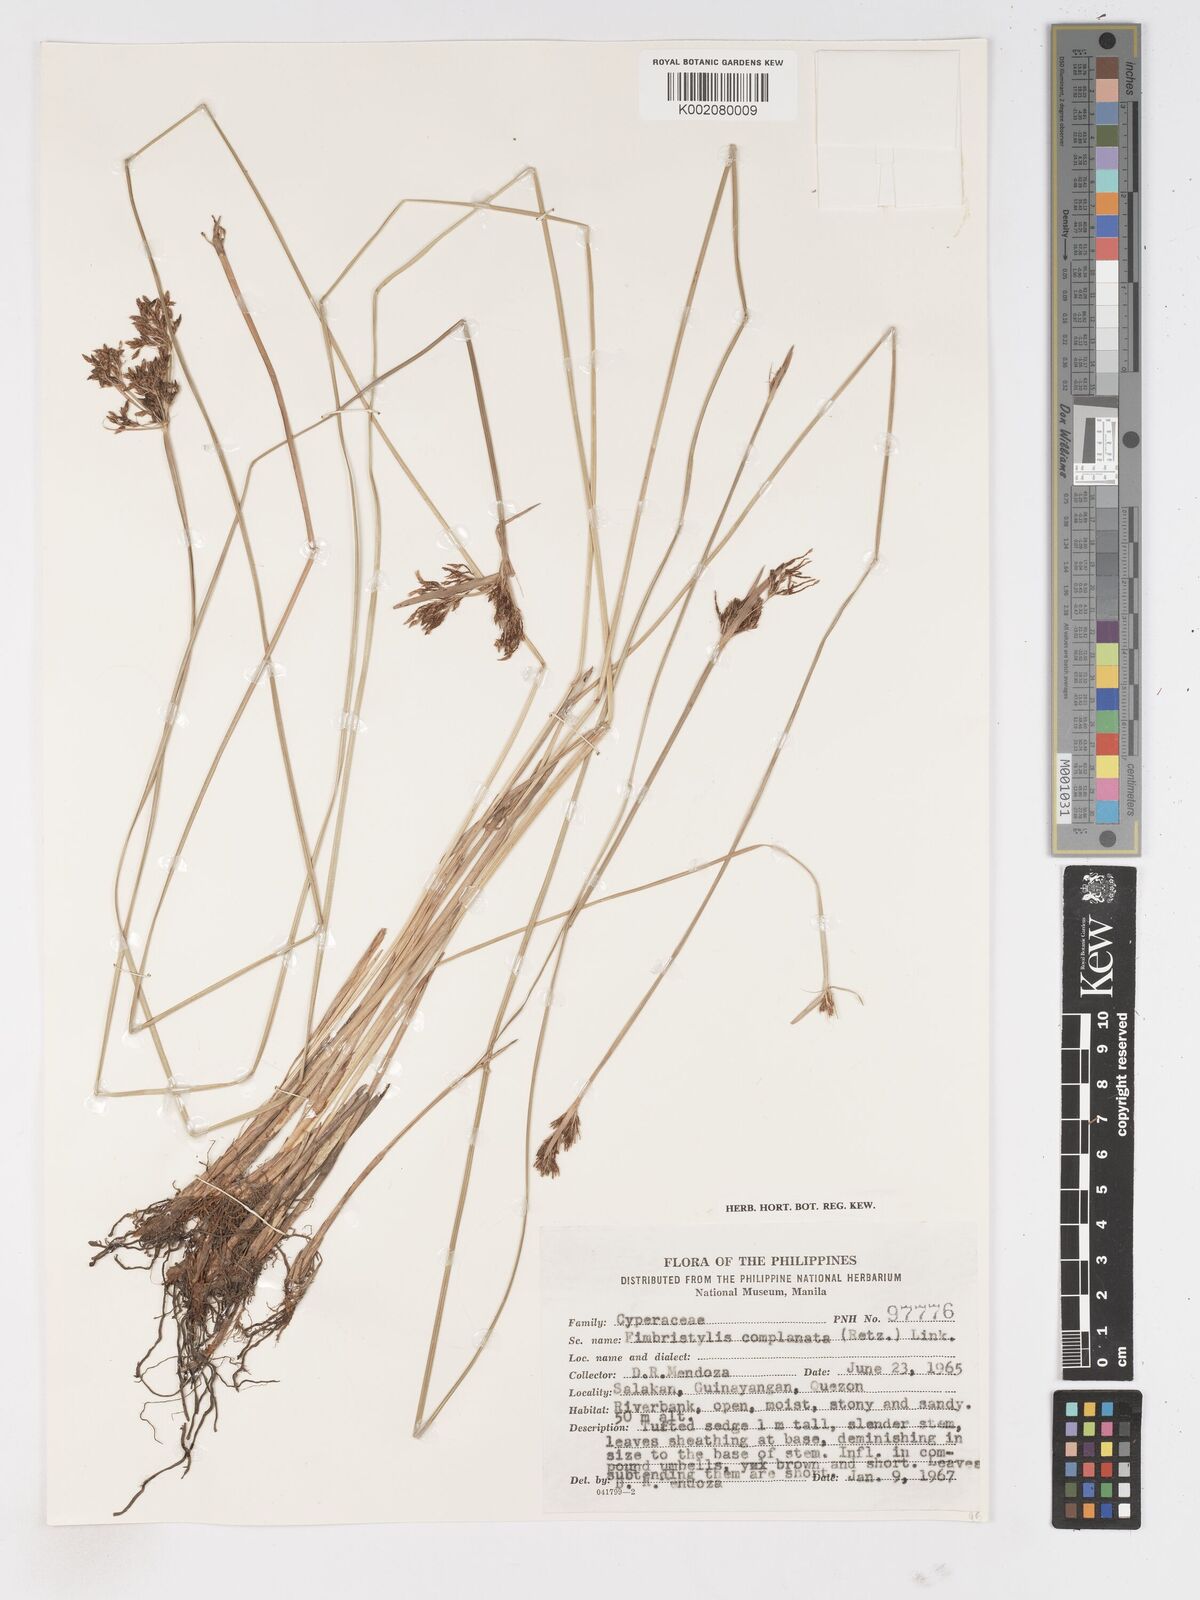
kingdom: Plantae
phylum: Tracheophyta
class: Liliopsida
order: Poales
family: Cyperaceae
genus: Fimbristylis
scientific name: Fimbristylis complanata
